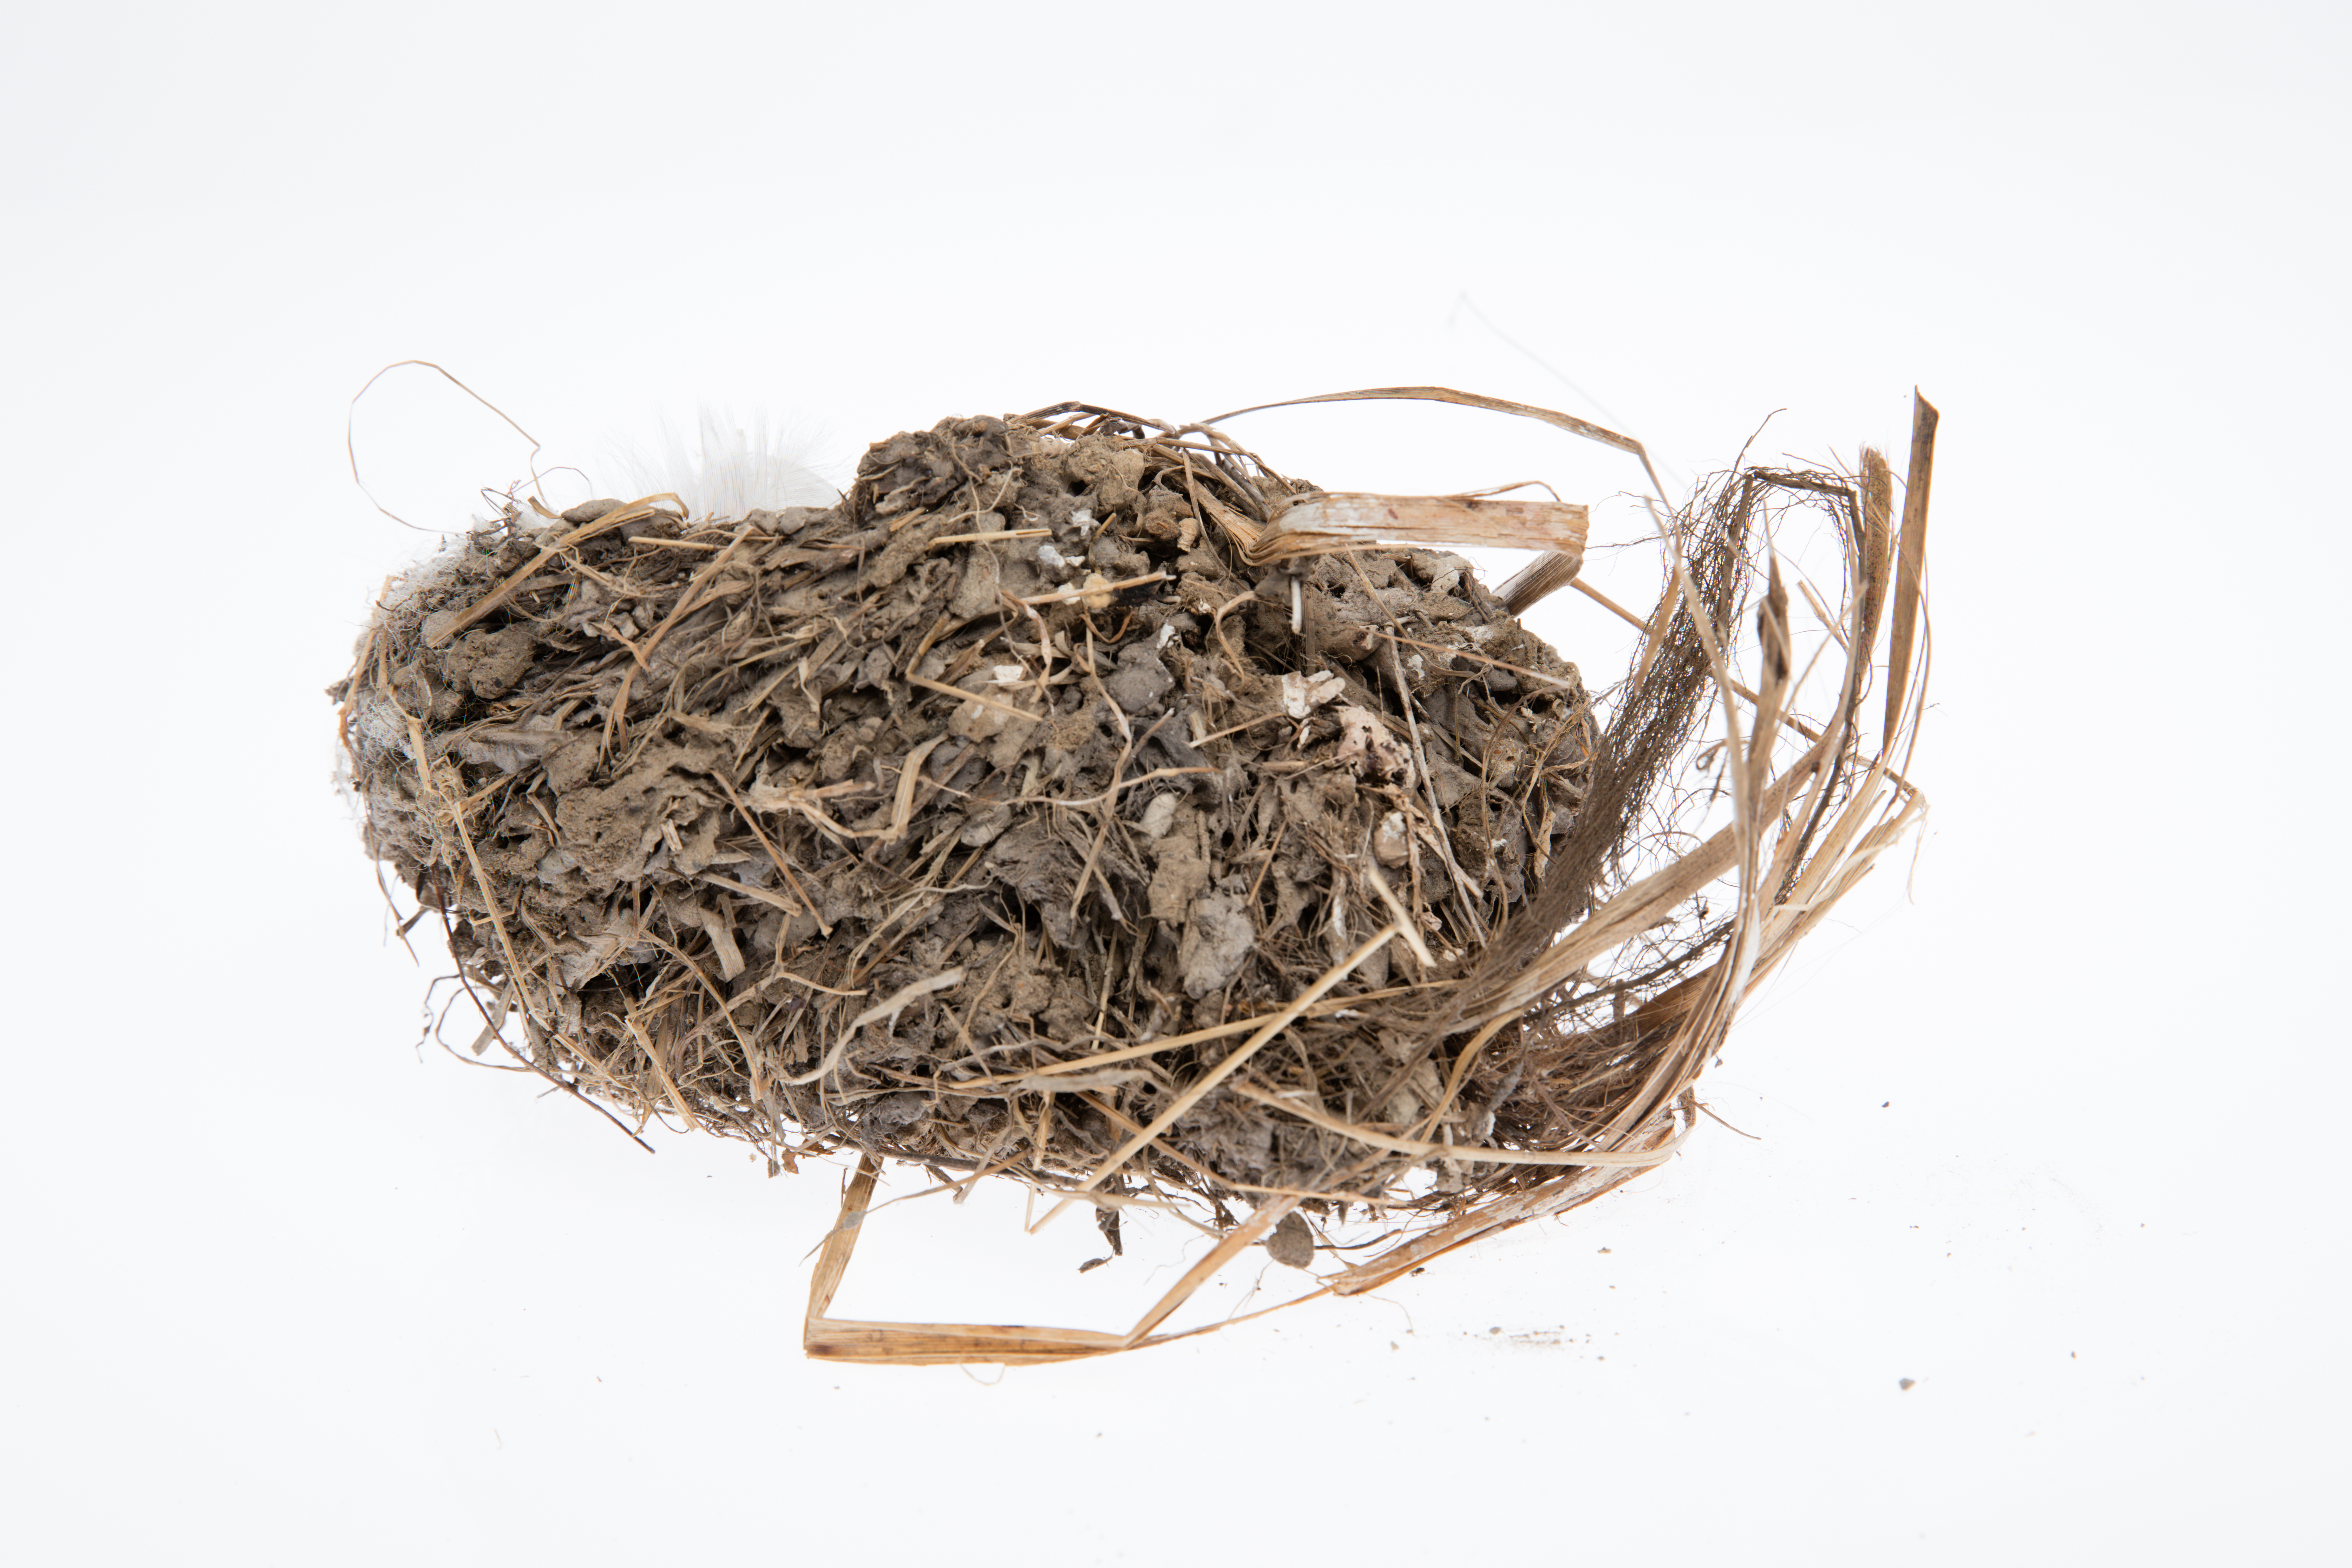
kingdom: Animalia
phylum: Chordata
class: Aves
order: Passeriformes
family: Hirundinidae
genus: Hirundo
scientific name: Hirundo neoxena
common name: Welcome swallow
